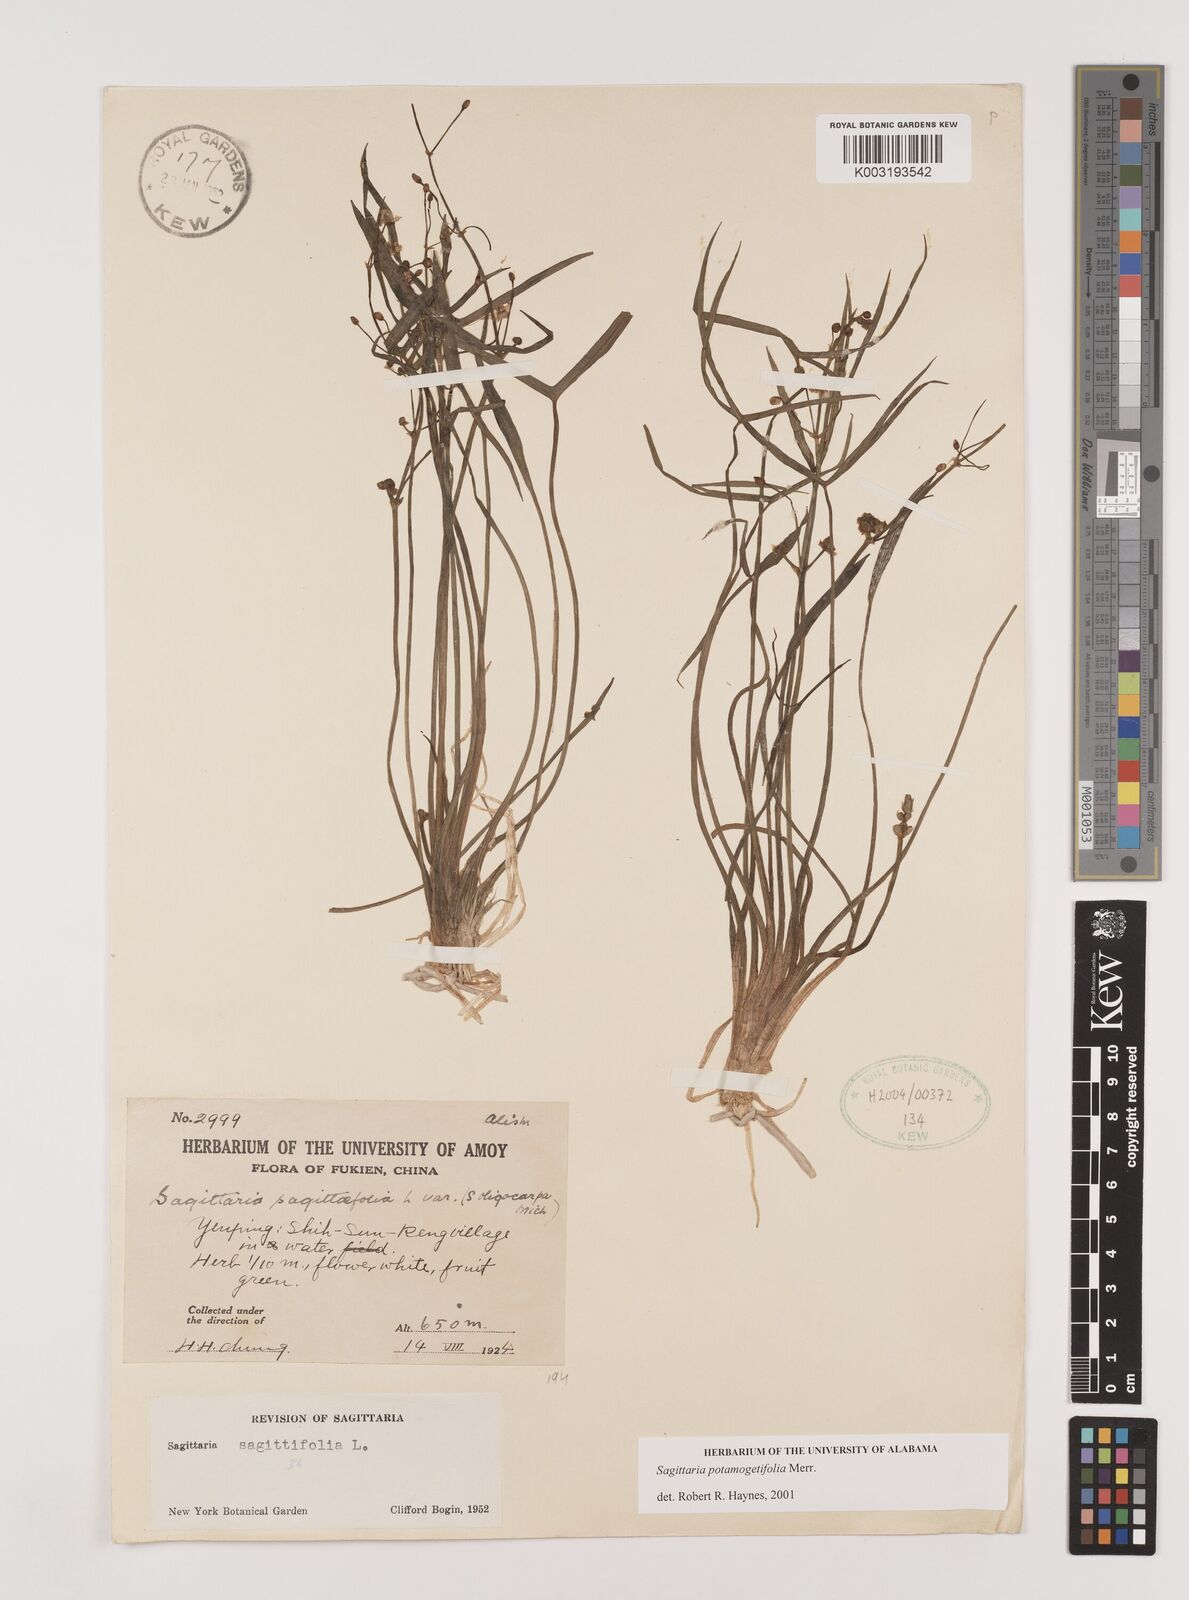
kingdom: Plantae
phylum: Tracheophyta
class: Liliopsida
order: Alismatales
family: Alismataceae
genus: Sagittaria
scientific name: Sagittaria potamogetifolia
